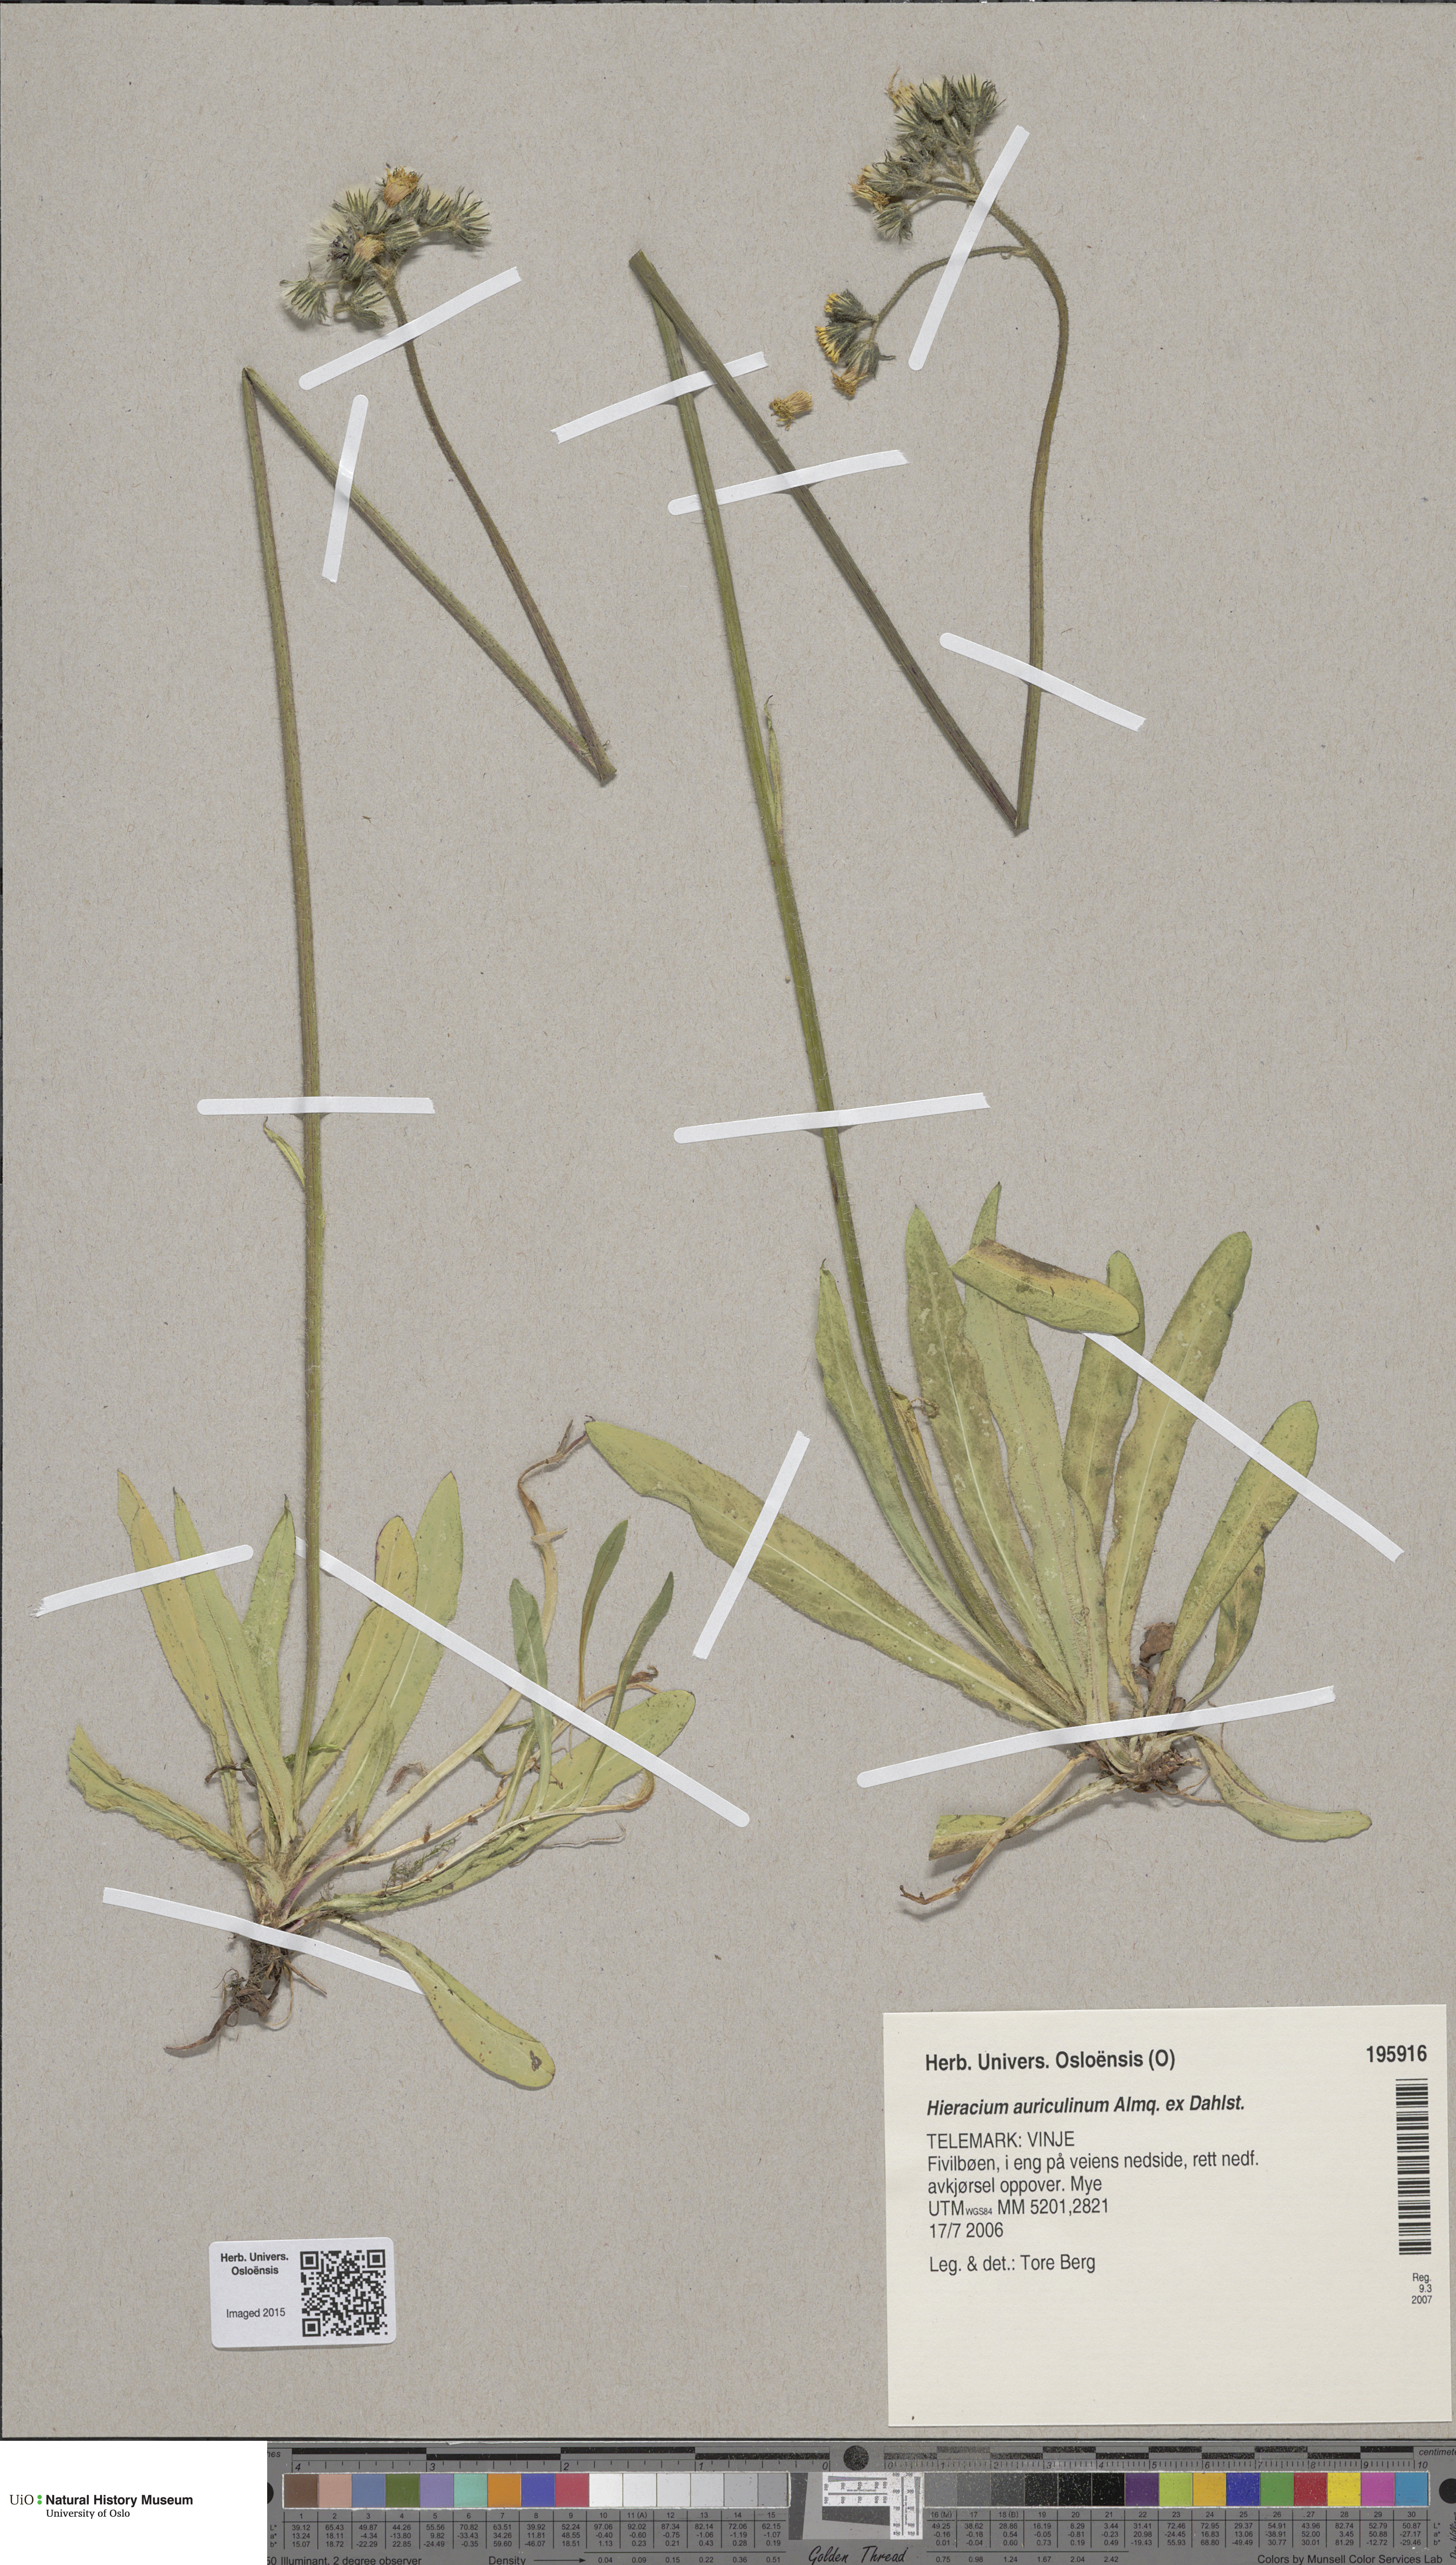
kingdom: Plantae
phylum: Tracheophyta
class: Magnoliopsida
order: Asterales
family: Asteraceae
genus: Pilosella
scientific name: Pilosella dubia
